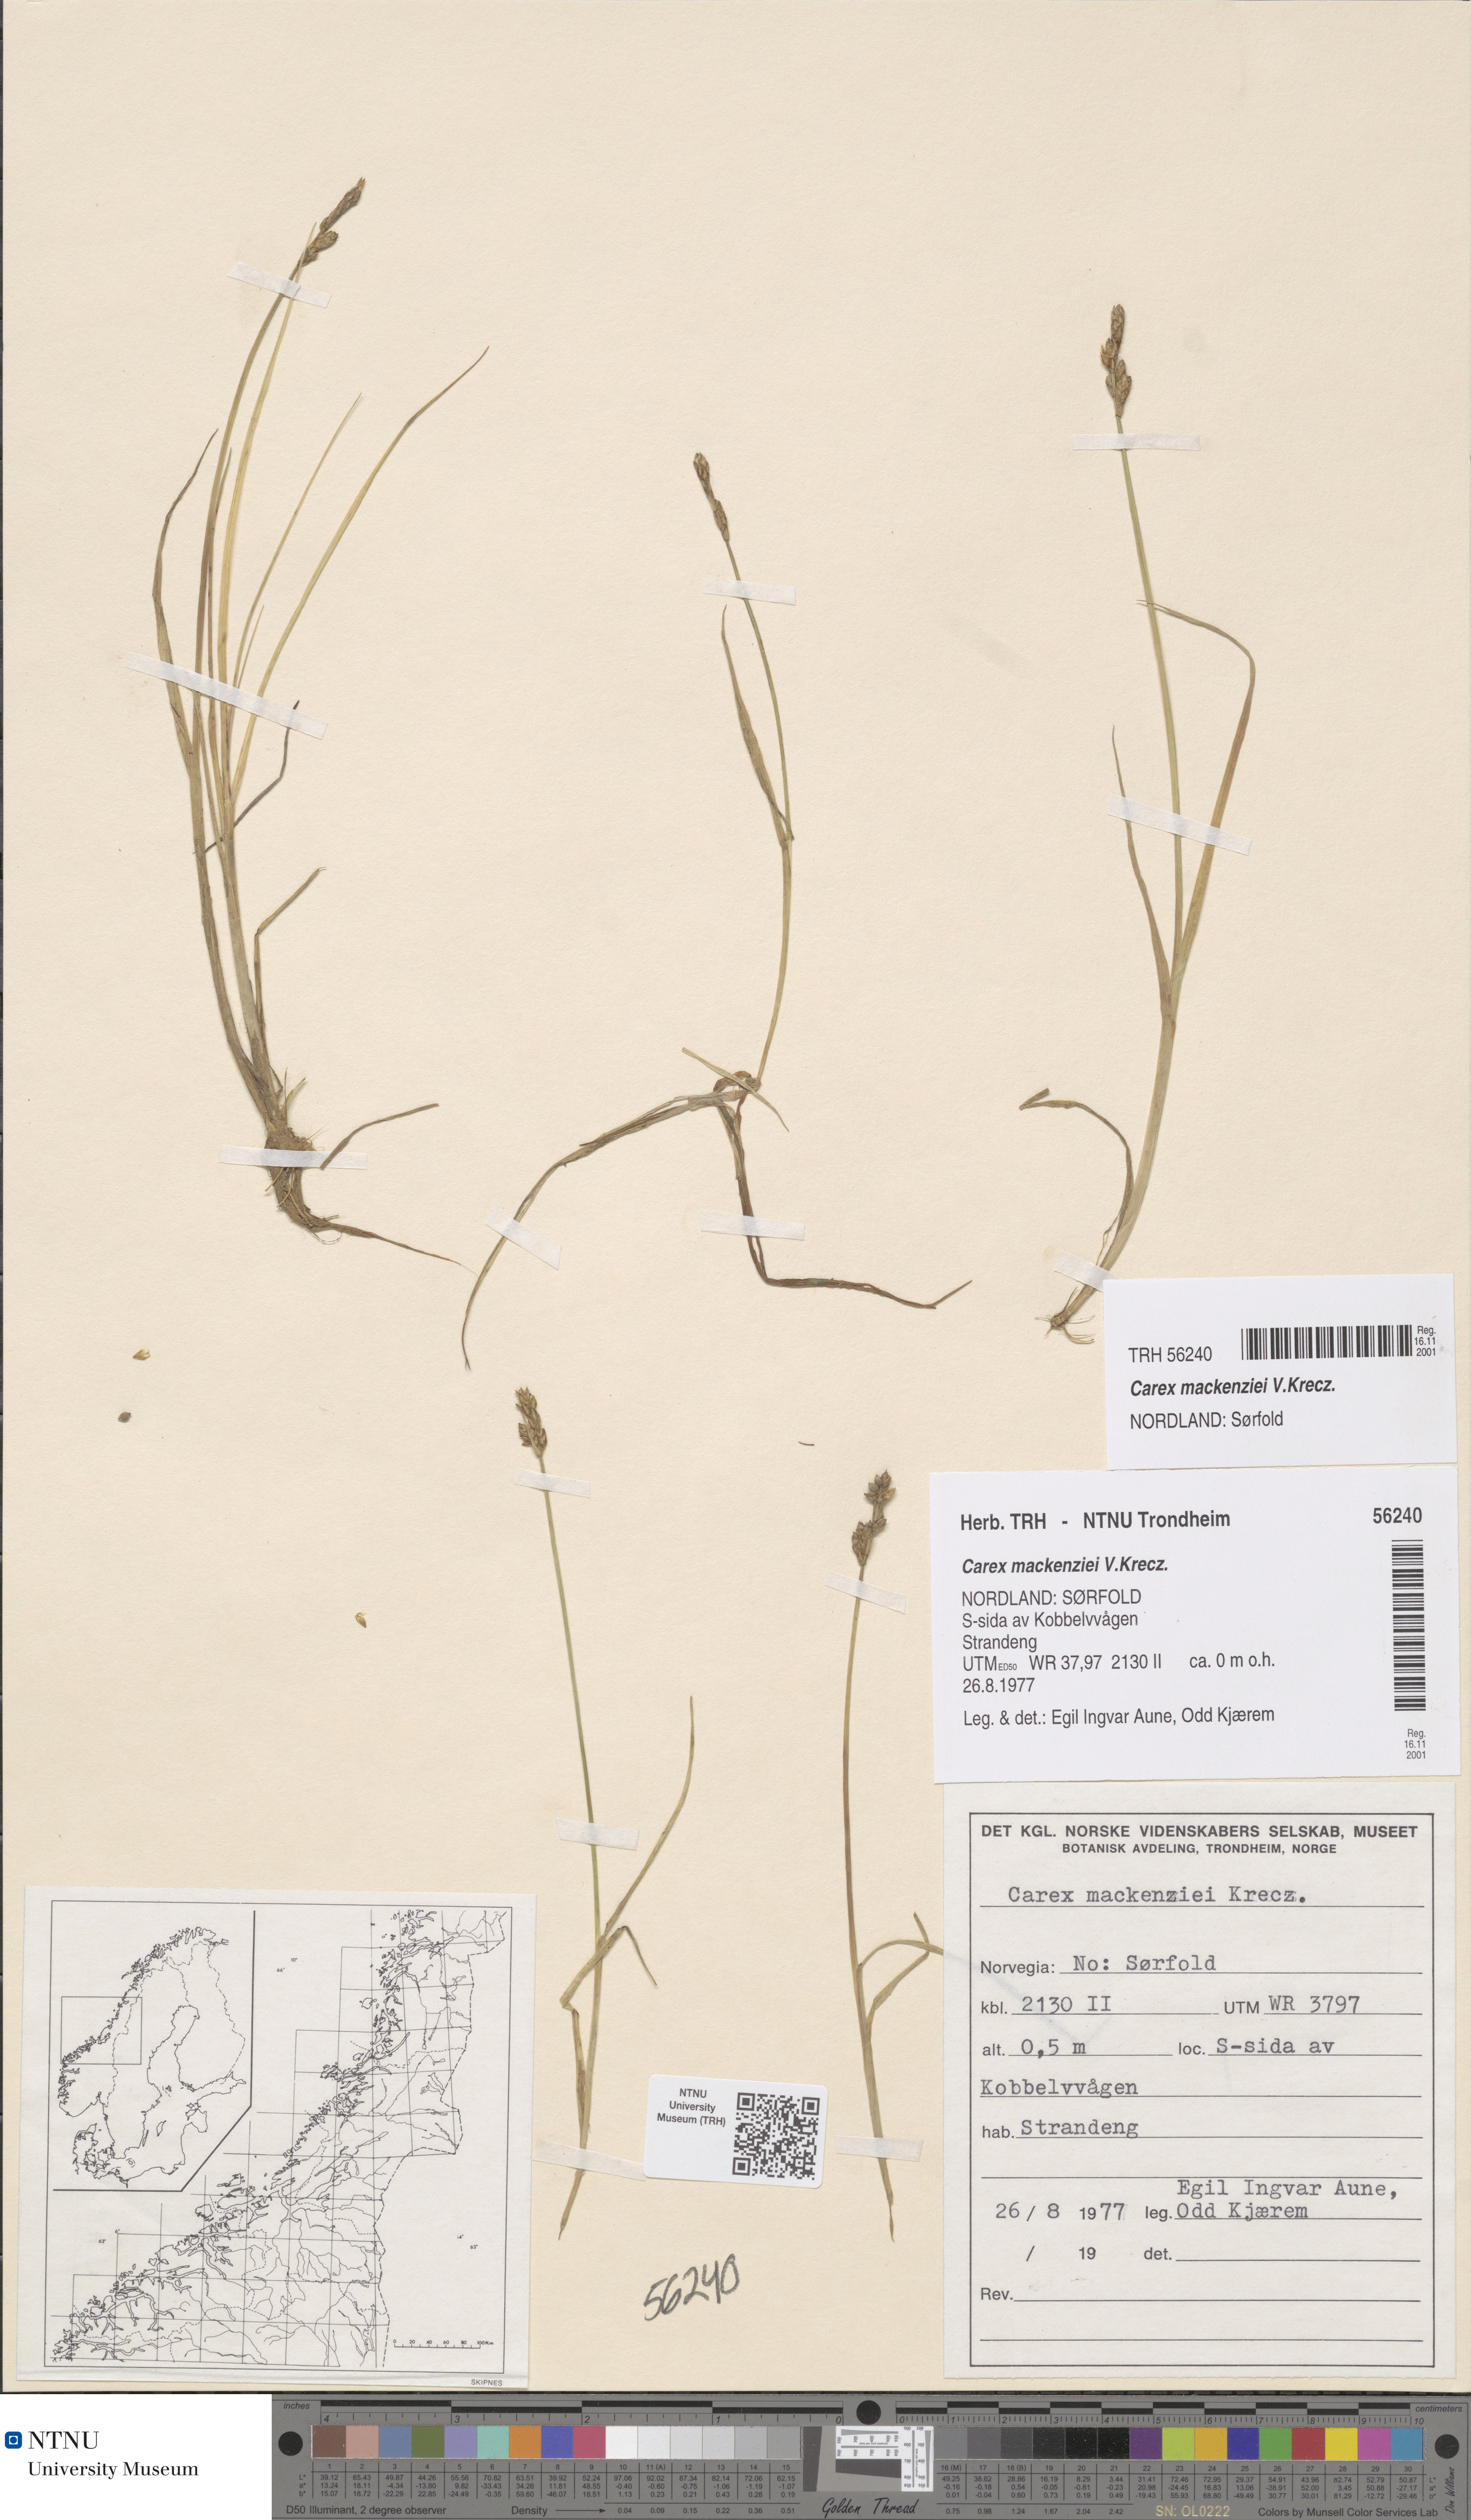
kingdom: Plantae
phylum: Tracheophyta
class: Liliopsida
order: Poales
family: Cyperaceae
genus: Carex
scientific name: Carex mackenziei
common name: Mackenzie's sedge
